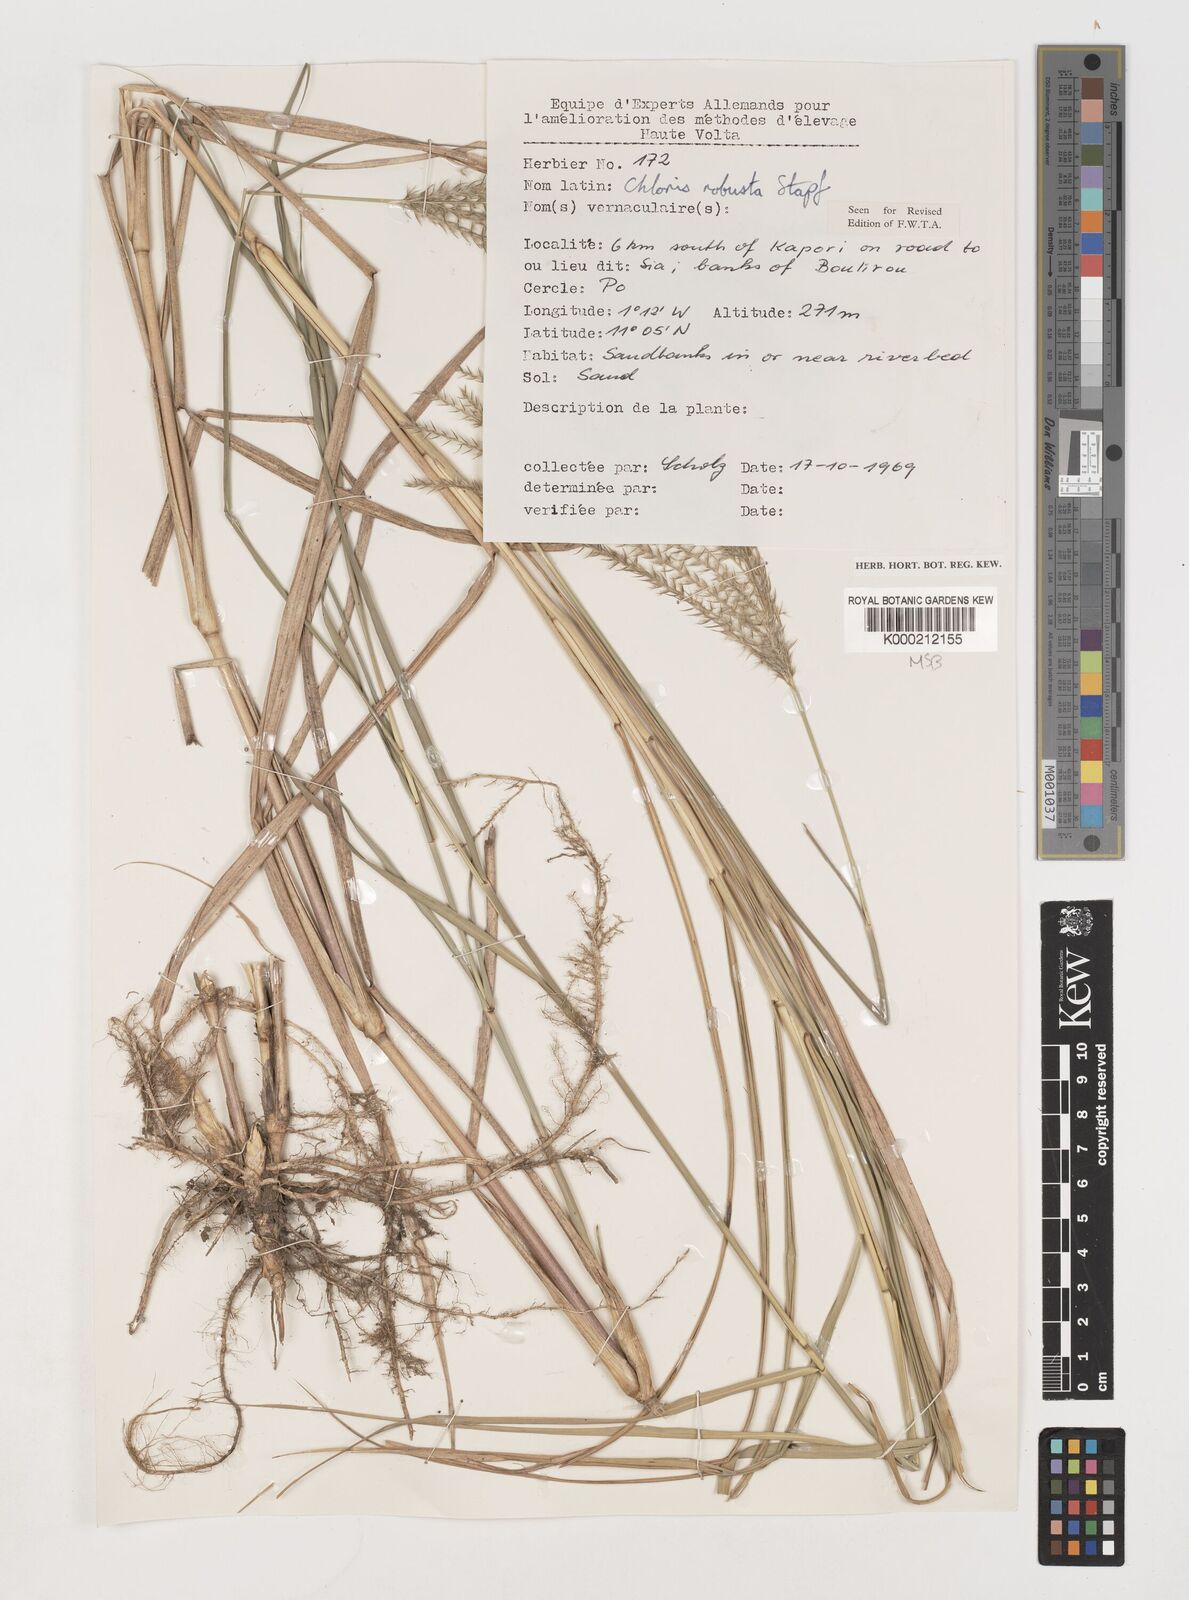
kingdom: Plantae
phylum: Tracheophyta
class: Liliopsida
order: Poales
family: Poaceae
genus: Chloris
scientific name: Chloris robusta
